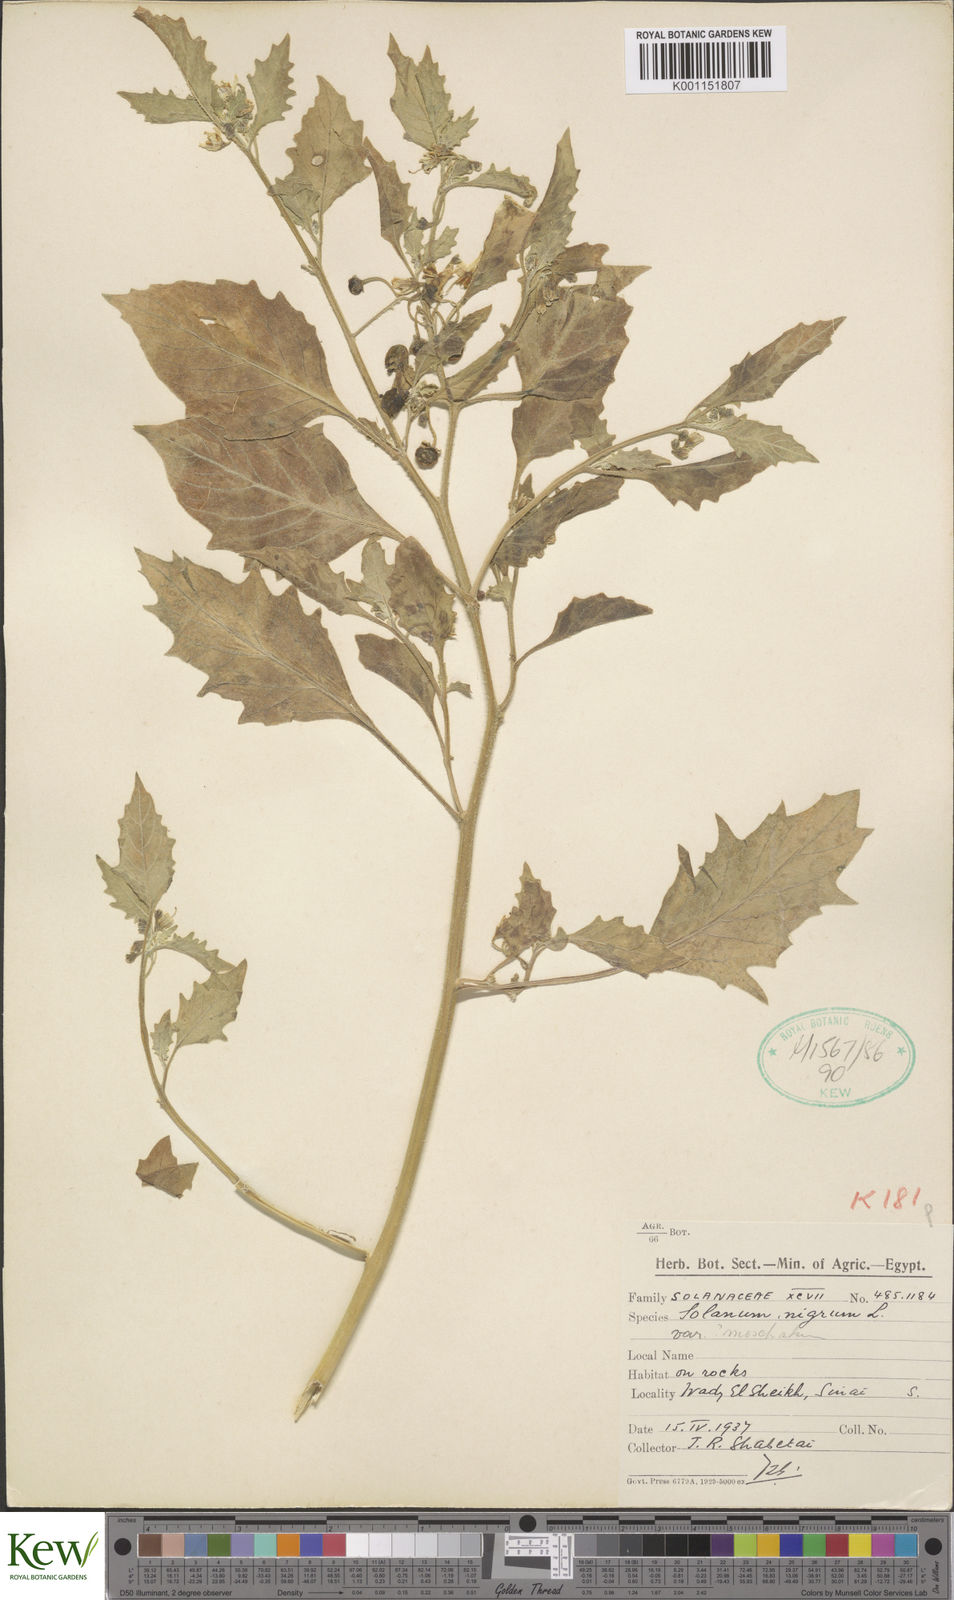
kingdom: Plantae
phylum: Tracheophyta
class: Magnoliopsida
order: Solanales
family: Solanaceae
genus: Solanum
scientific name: Solanum nigrum
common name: Black nightshade
